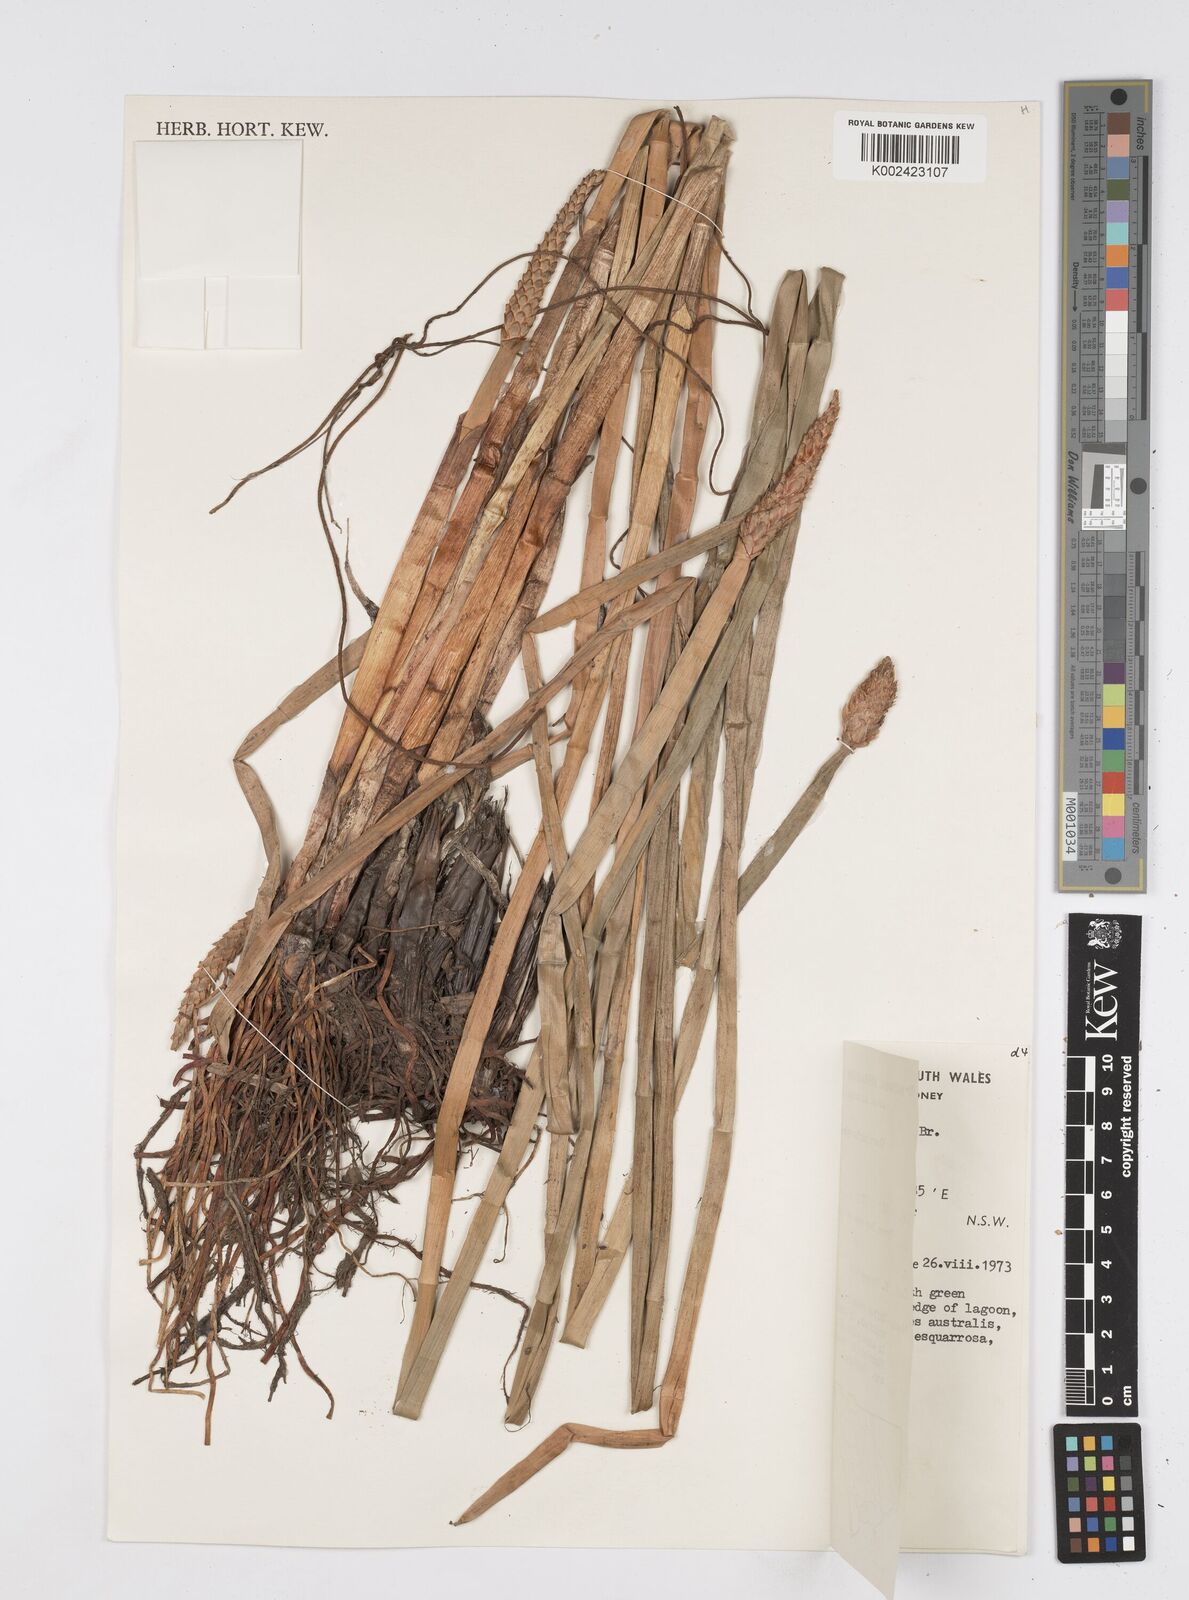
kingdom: Plantae
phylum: Tracheophyta
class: Liliopsida
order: Poales
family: Cyperaceae
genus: Eleocharis
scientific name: Eleocharis sphacelata
